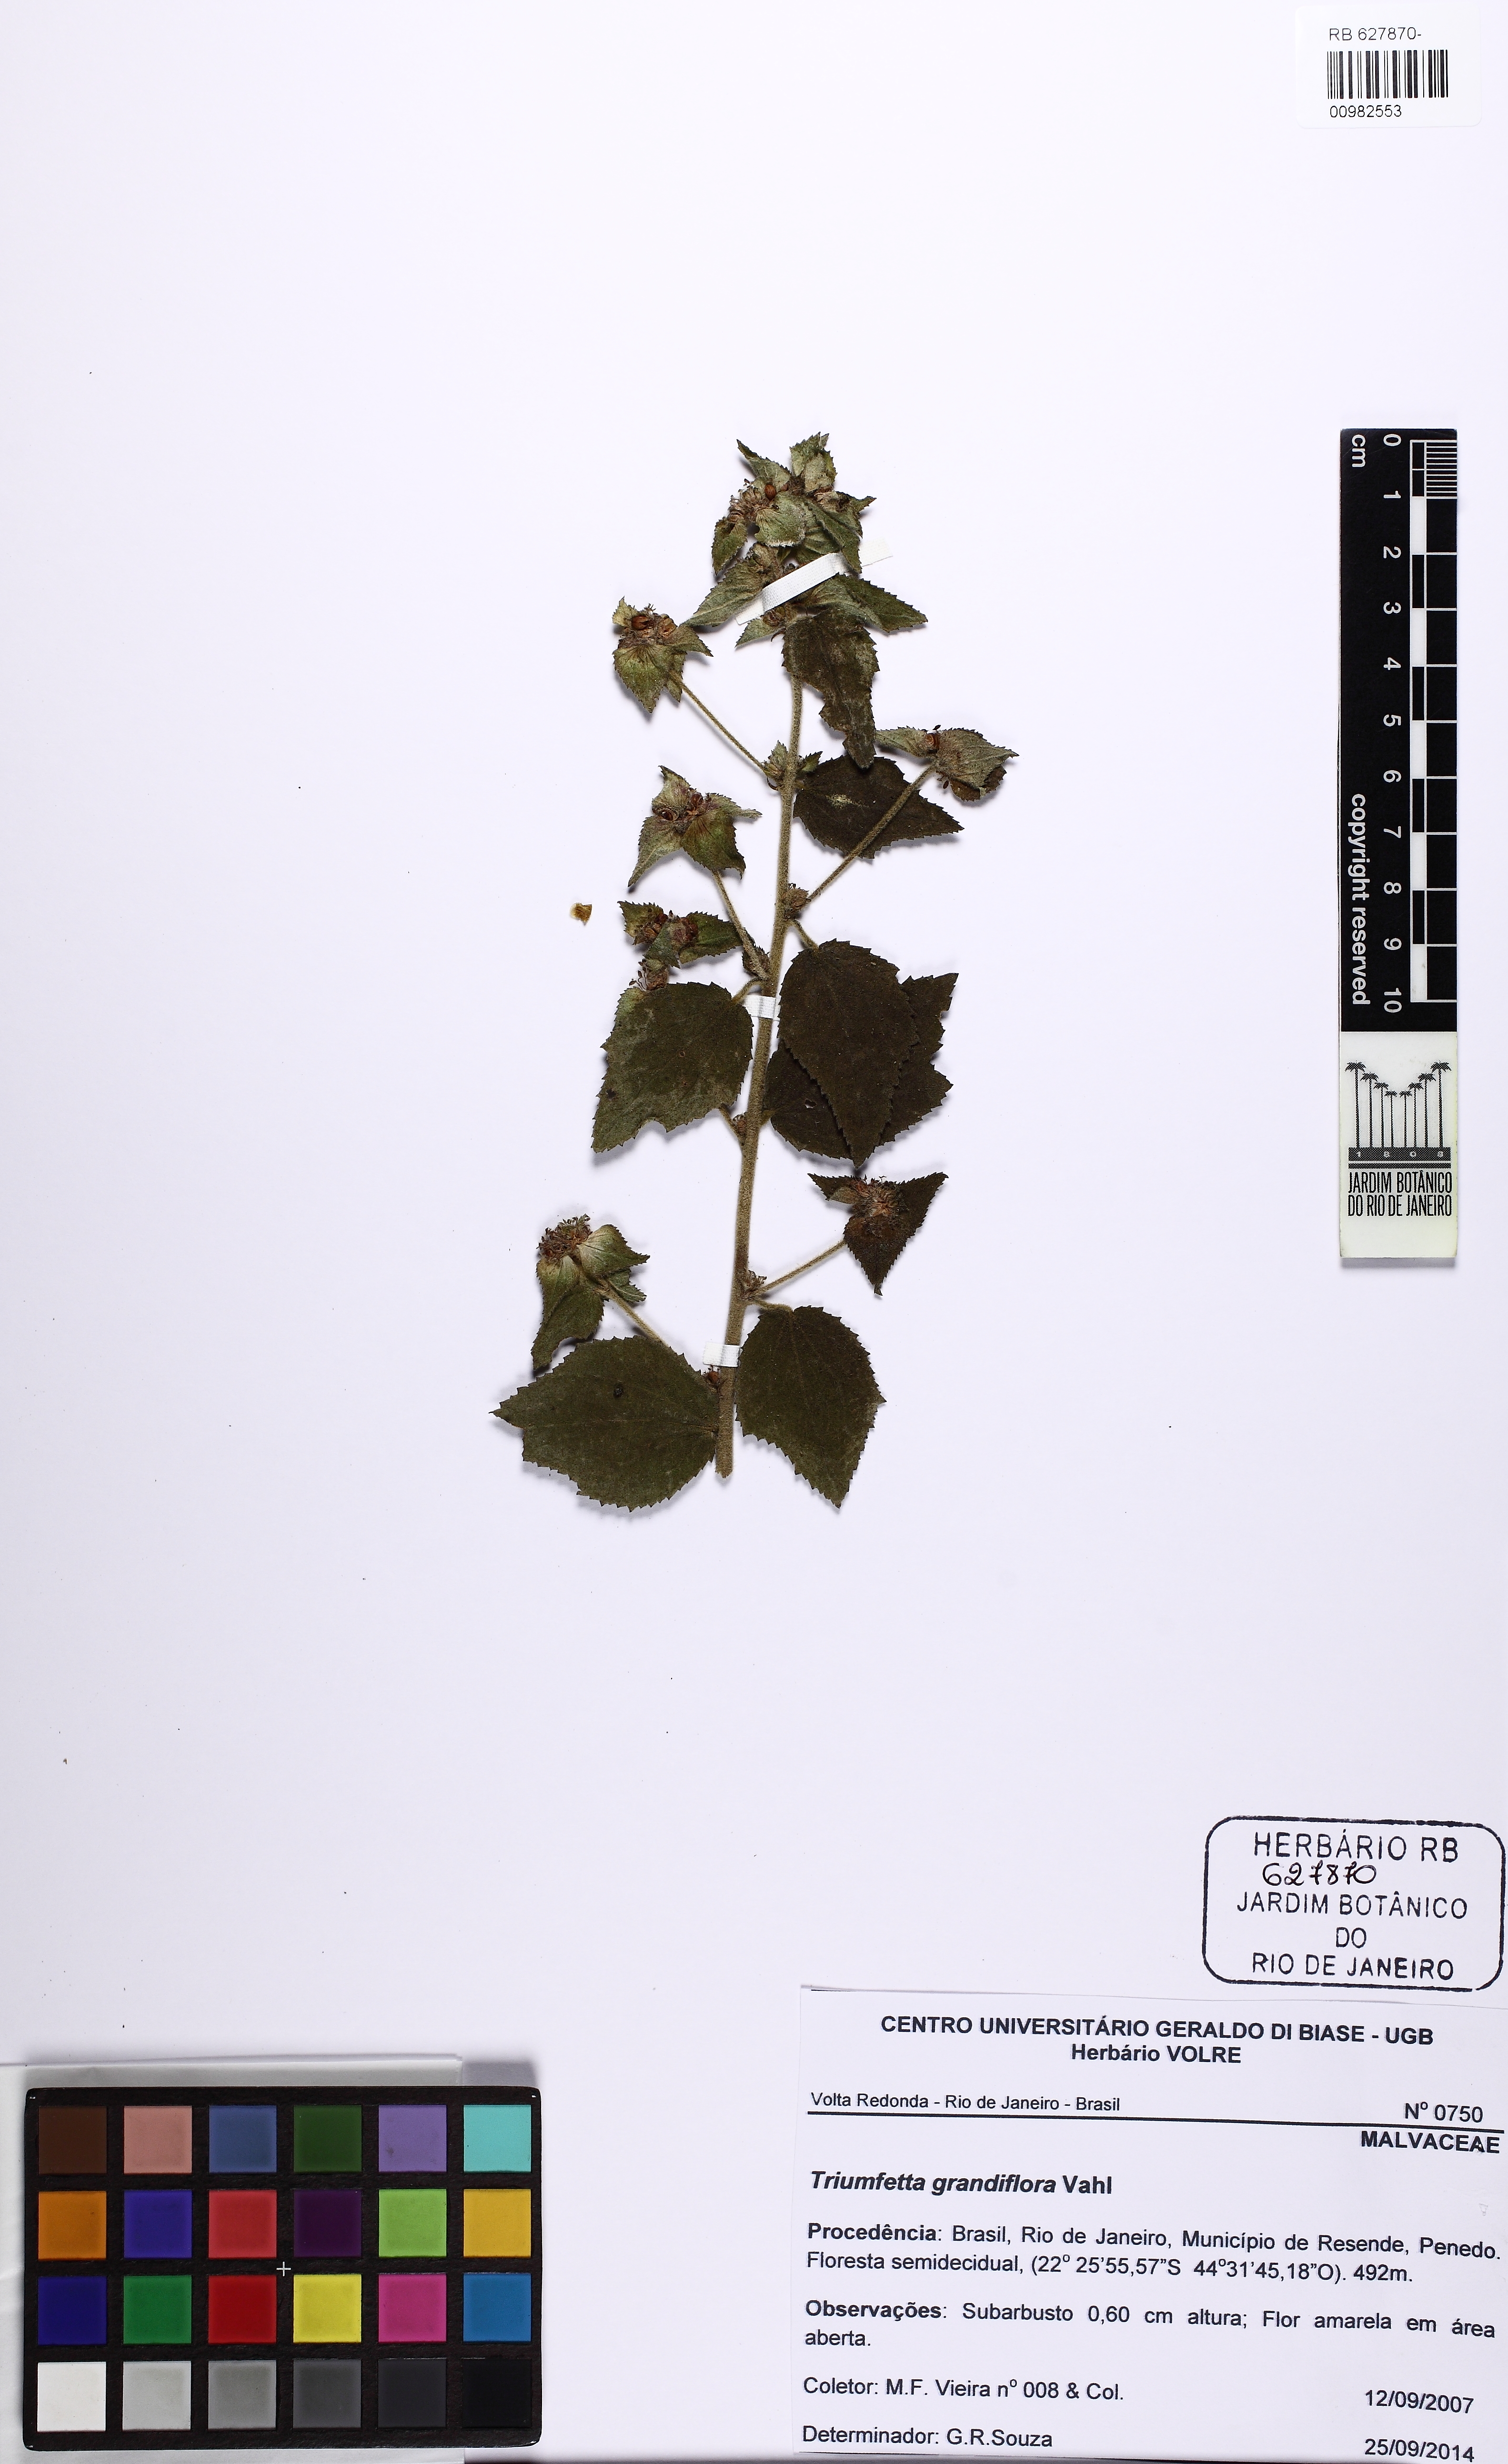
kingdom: Plantae
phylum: Tracheophyta
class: Magnoliopsida
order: Malvales
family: Malvaceae
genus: Triumfetta
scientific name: Triumfetta grandiflora
